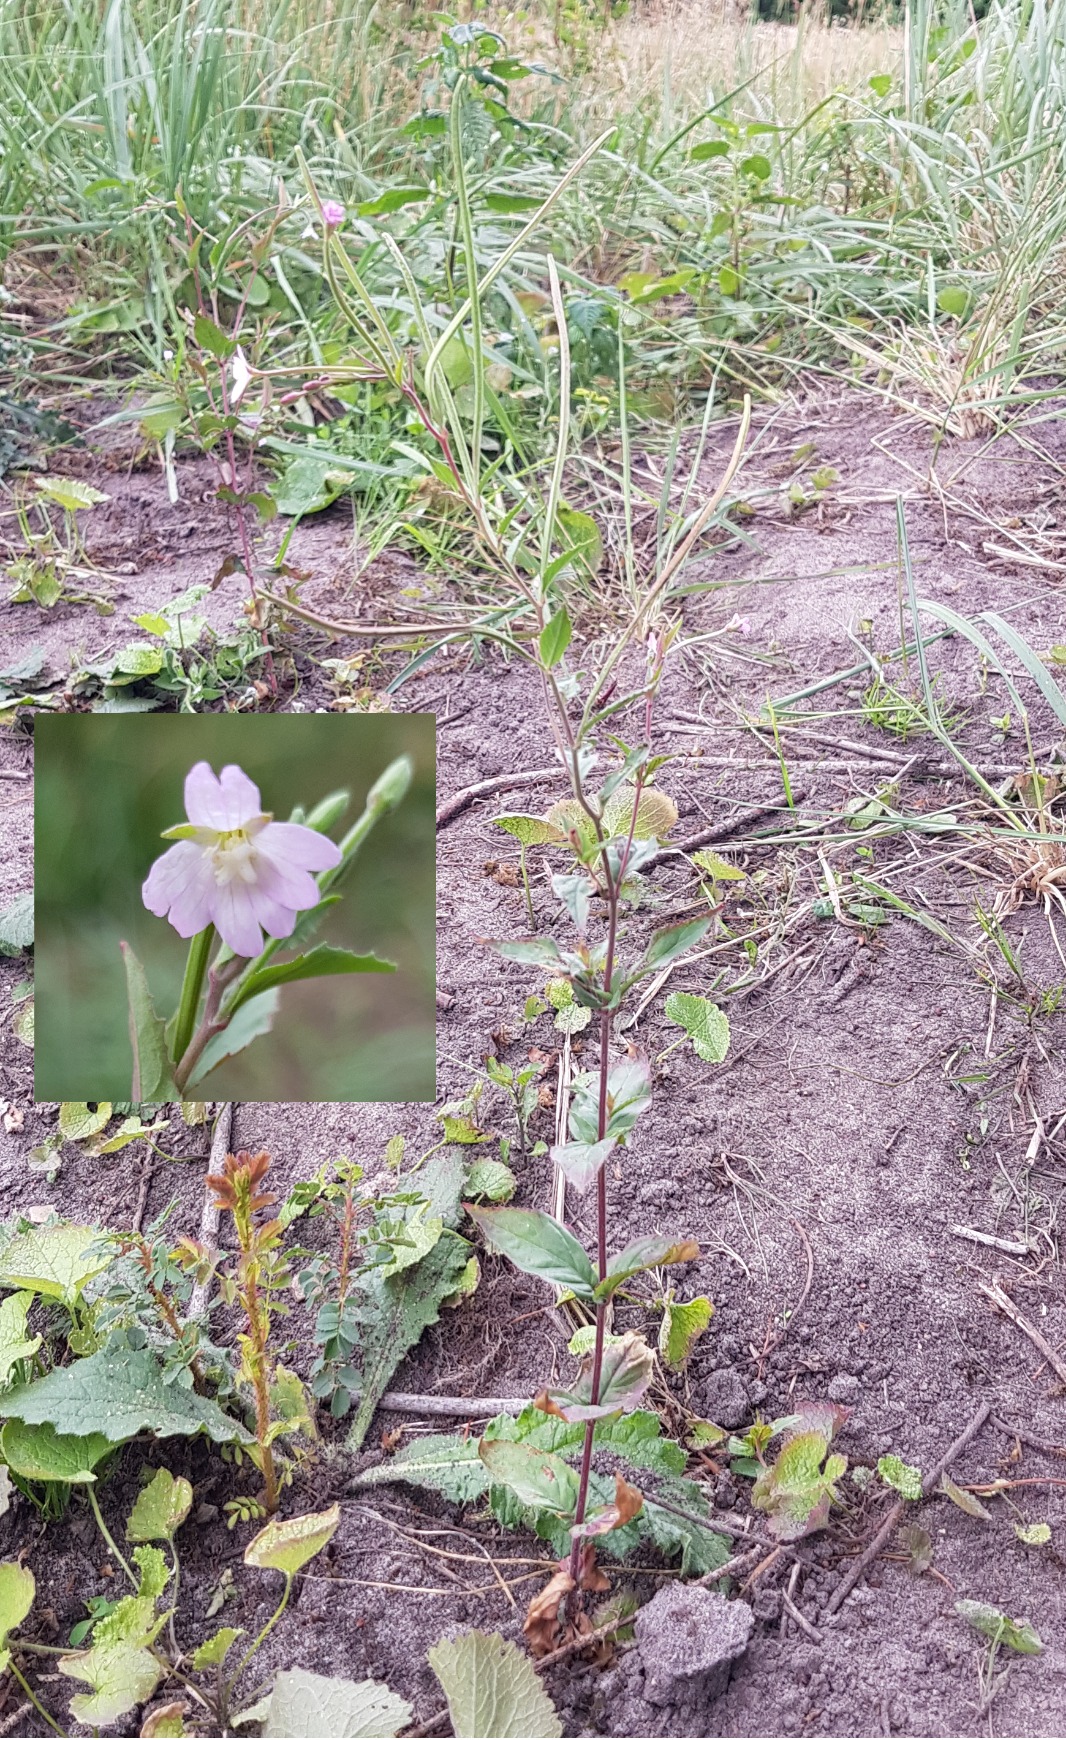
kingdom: Plantae
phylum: Tracheophyta
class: Magnoliopsida
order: Myrtales
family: Onagraceae
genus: Epilobium
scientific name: Epilobium montanum
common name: Glat dueurt
